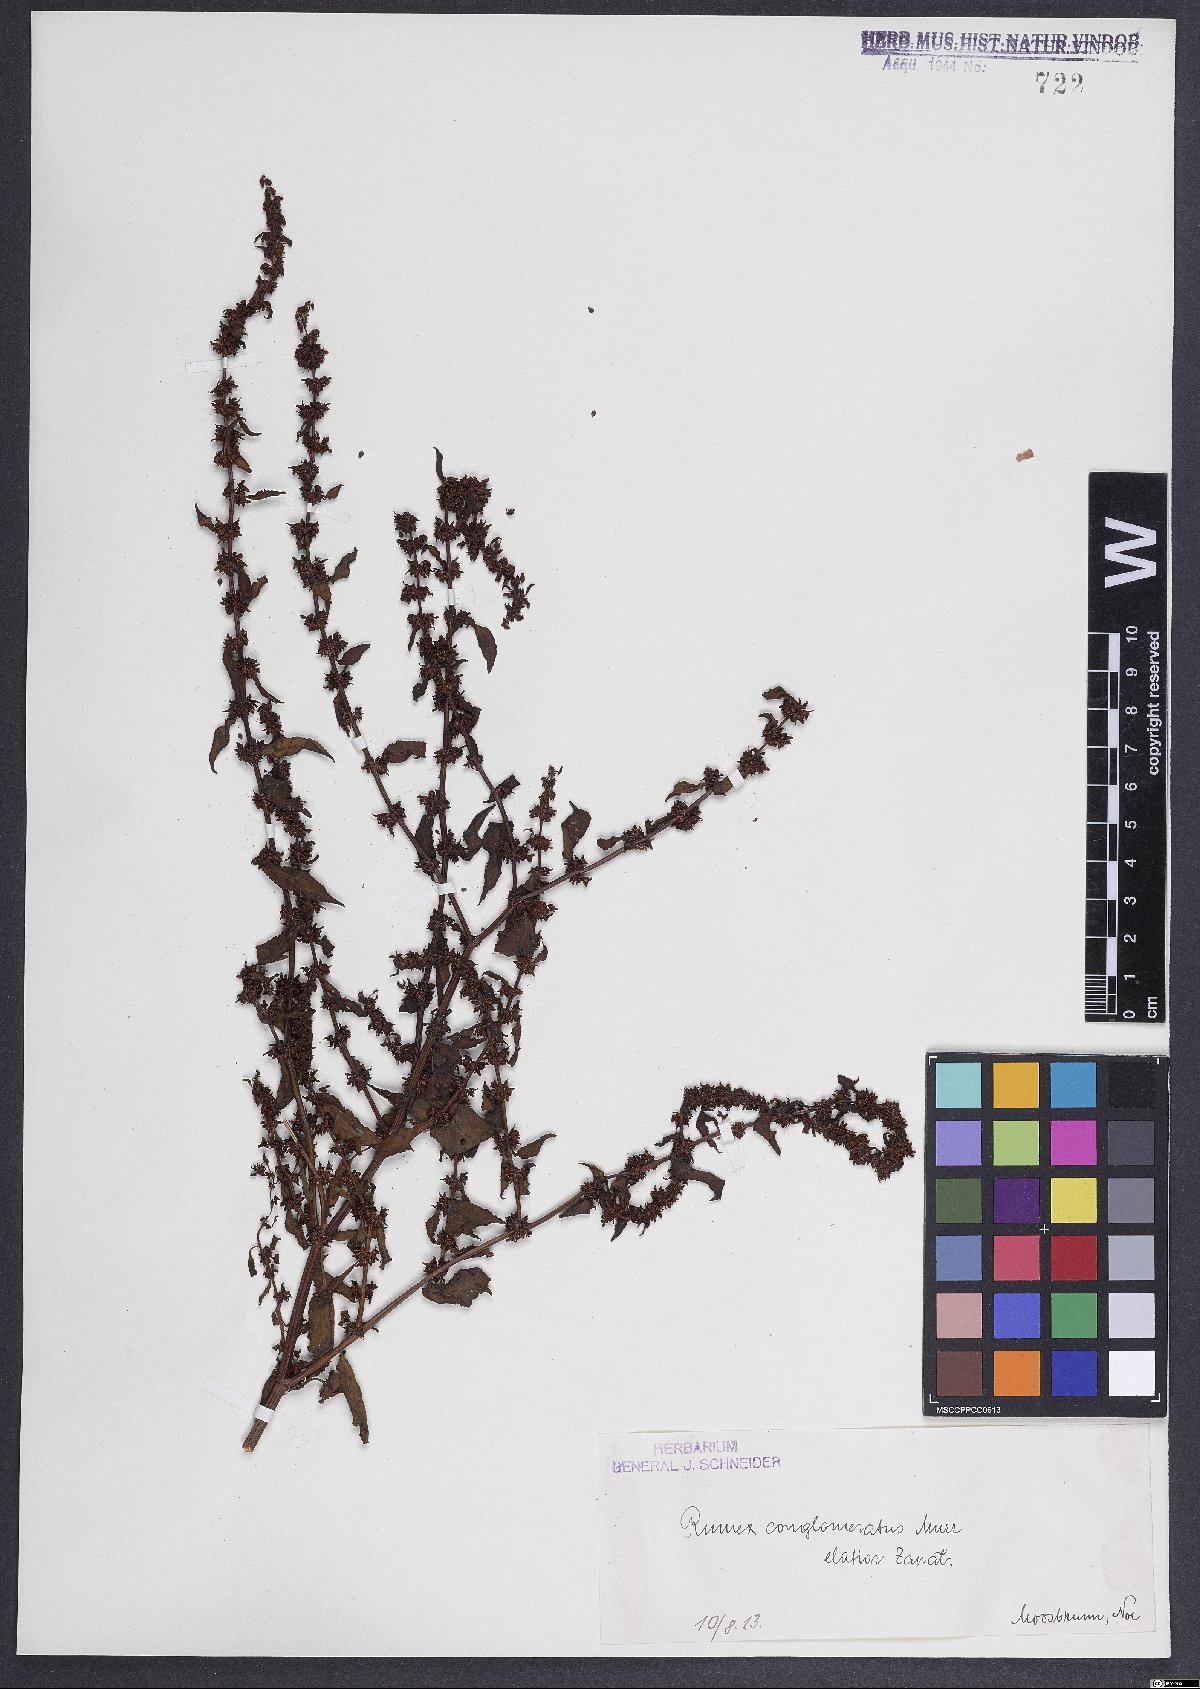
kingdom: Plantae
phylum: Tracheophyta
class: Magnoliopsida
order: Caryophyllales
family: Polygonaceae
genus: Rumex
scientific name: Rumex conglomeratus
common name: Clustered dock
